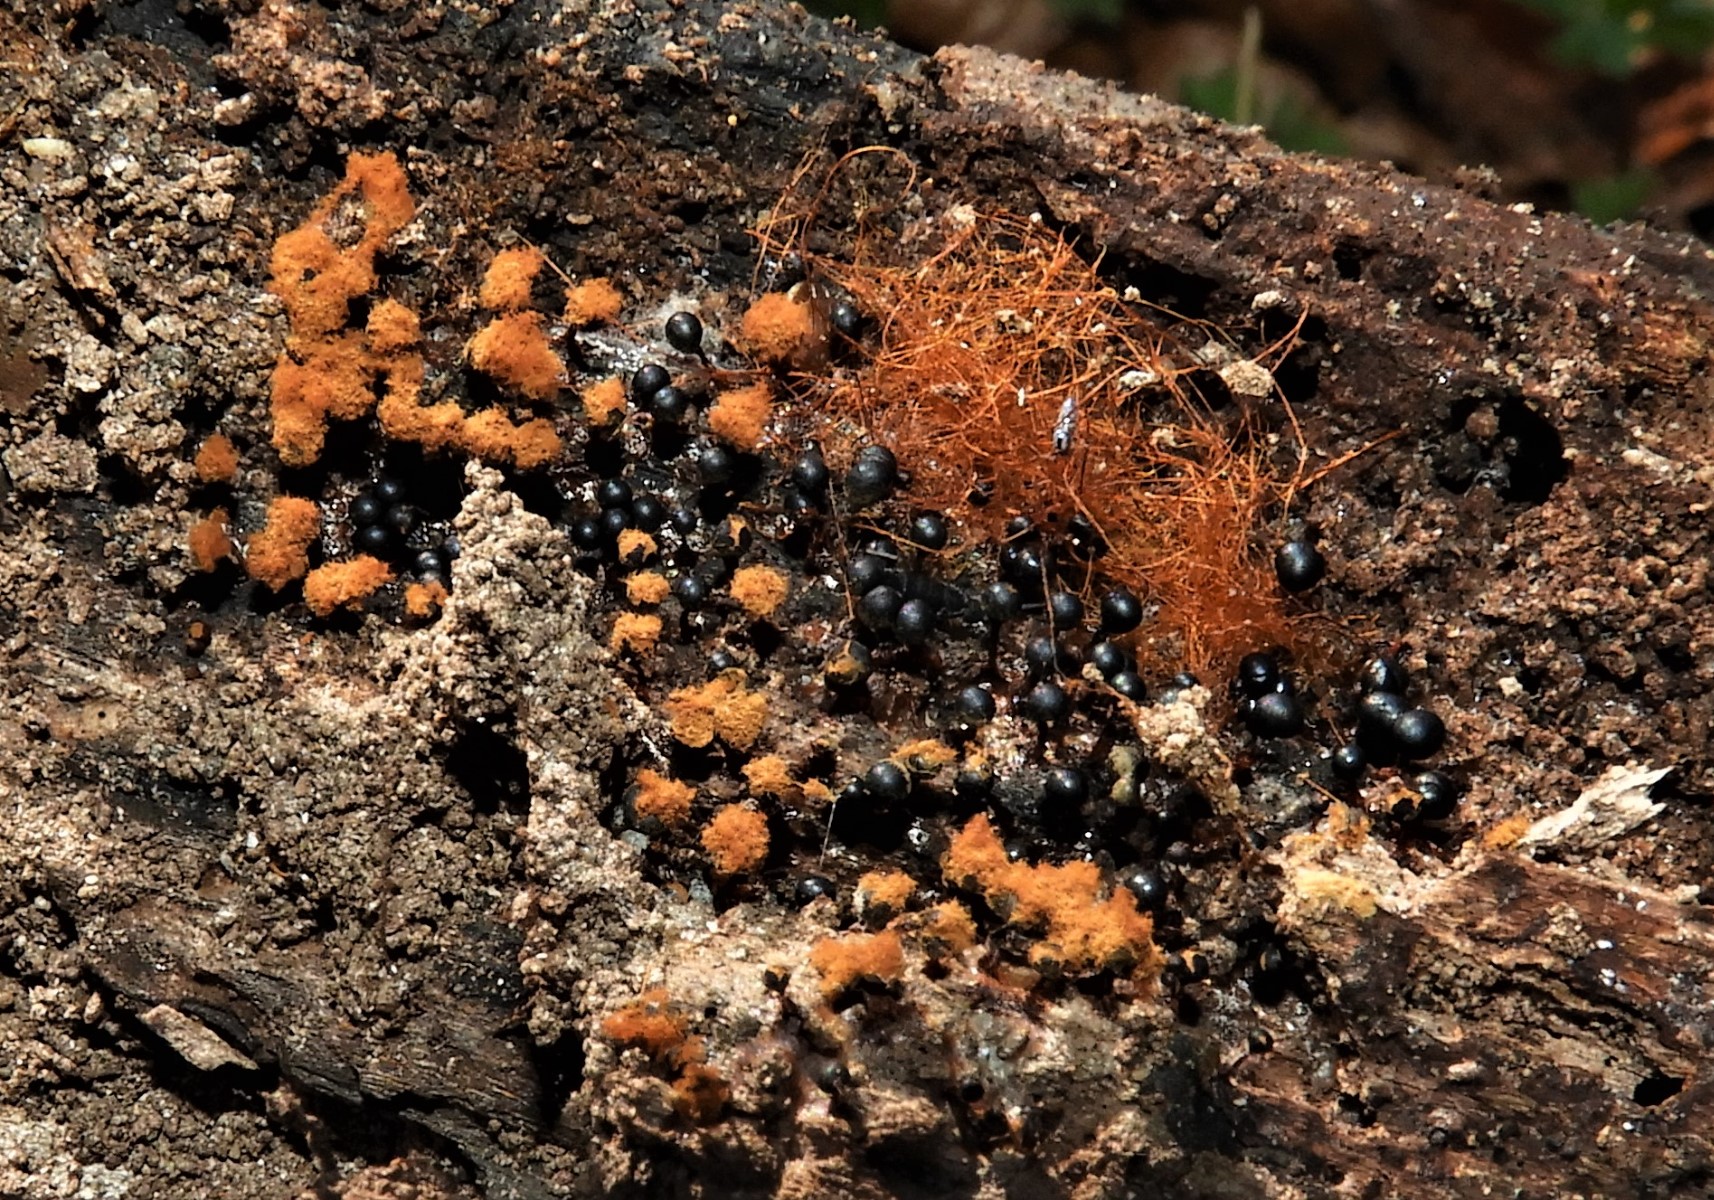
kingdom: Protozoa
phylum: Mycetozoa
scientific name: Mycetozoa
